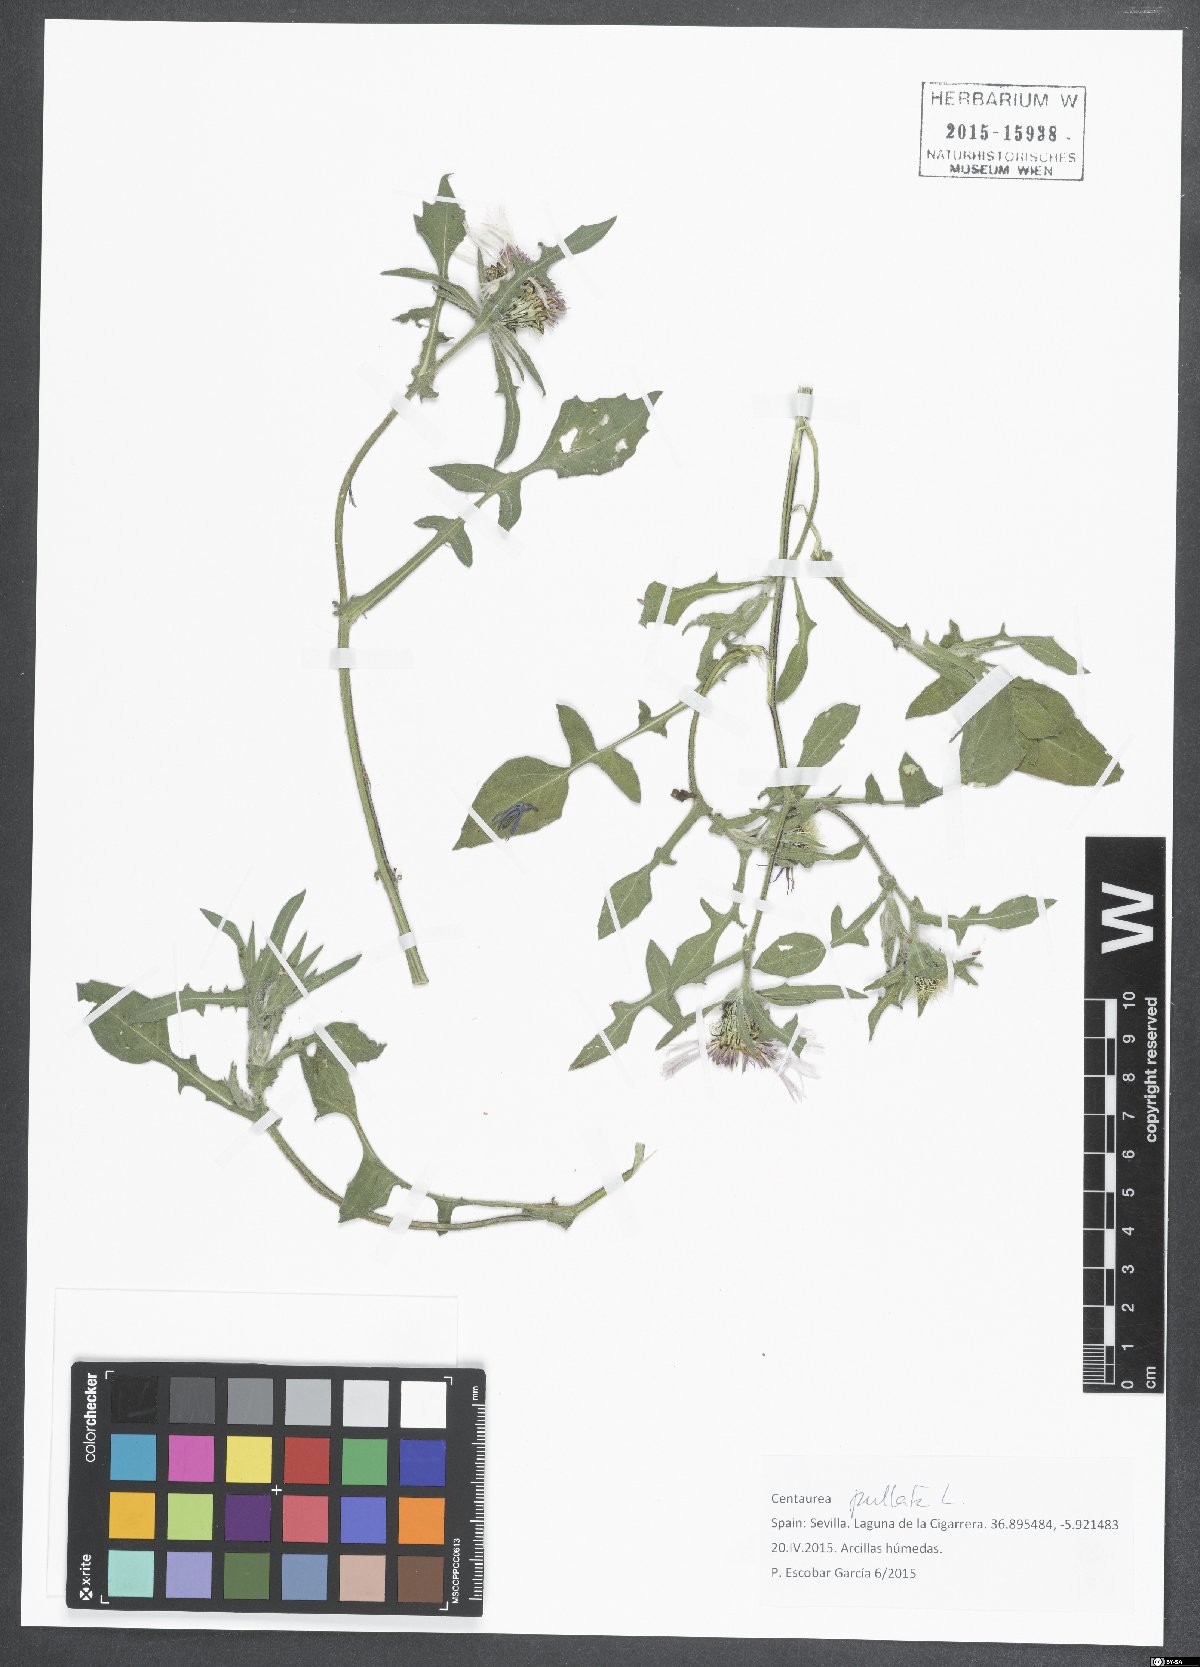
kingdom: Plantae
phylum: Tracheophyta
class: Magnoliopsida
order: Asterales
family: Asteraceae
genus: Centaurea
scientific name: Centaurea pullata
